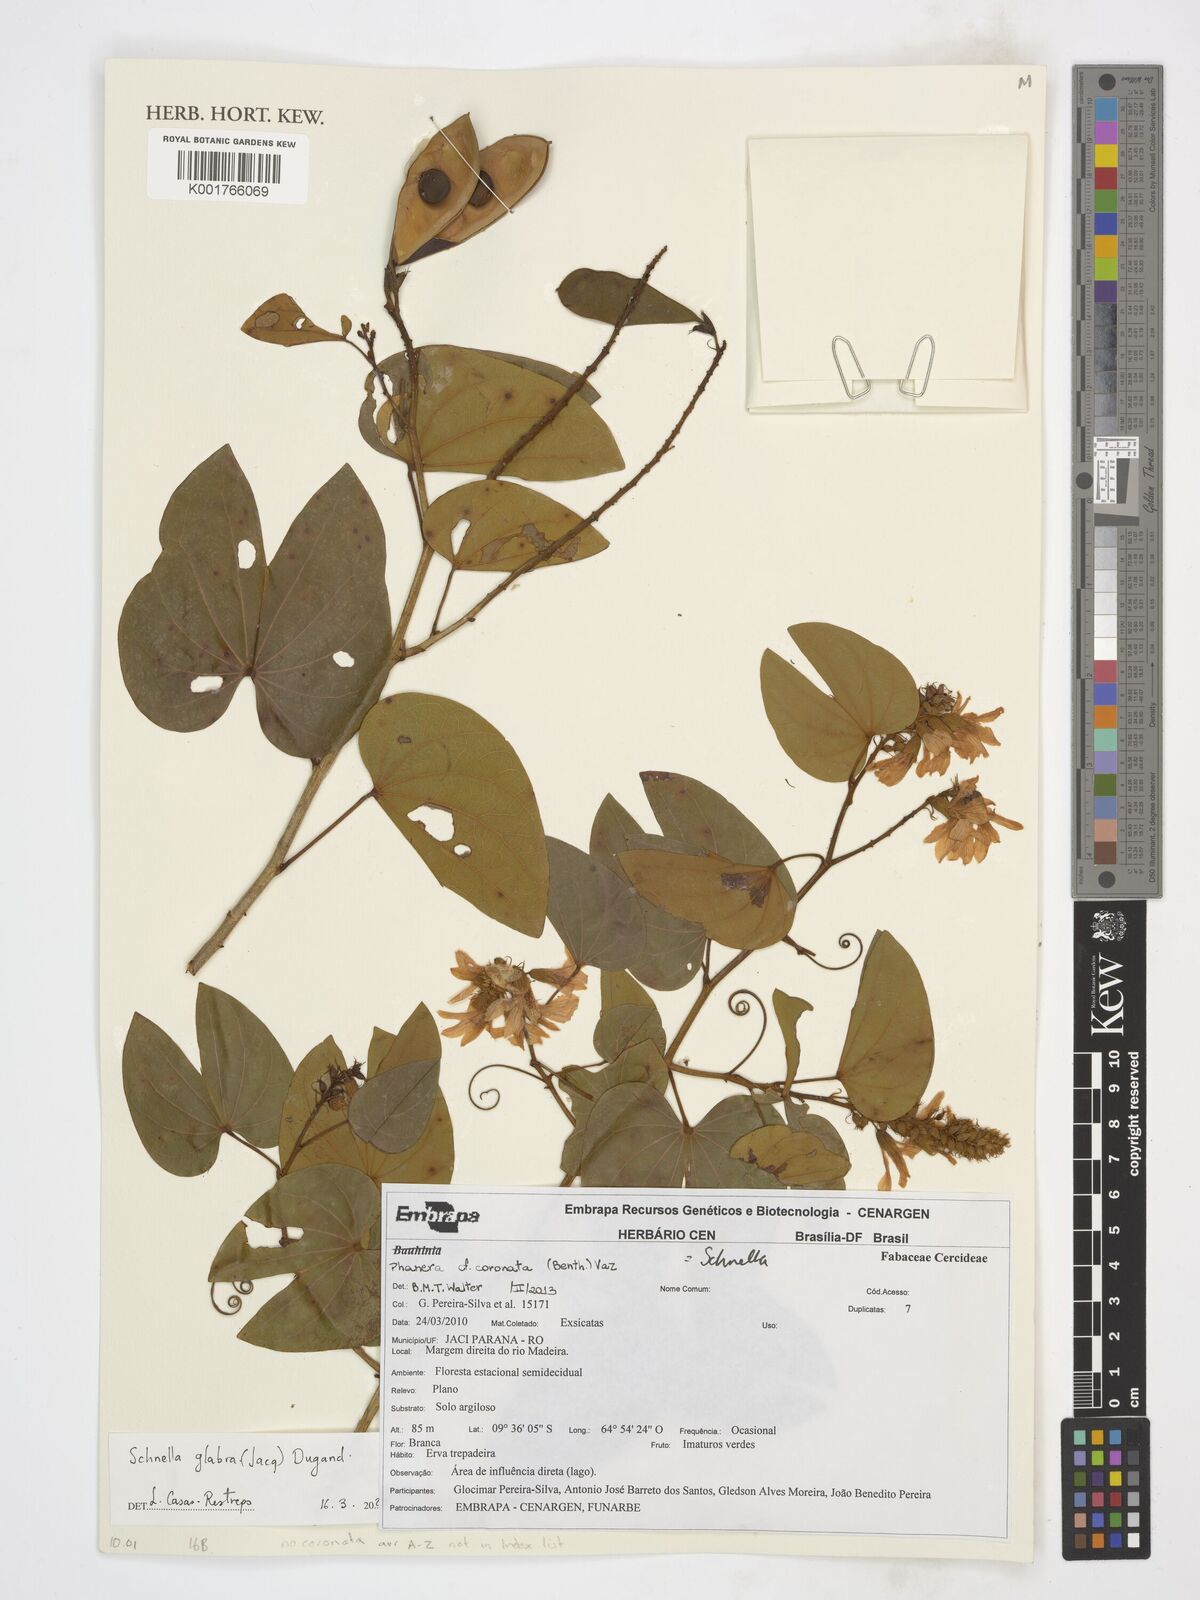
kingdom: Plantae
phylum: Tracheophyta
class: Magnoliopsida
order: Fabales
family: Fabaceae
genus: Schnella
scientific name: Schnella glabra
